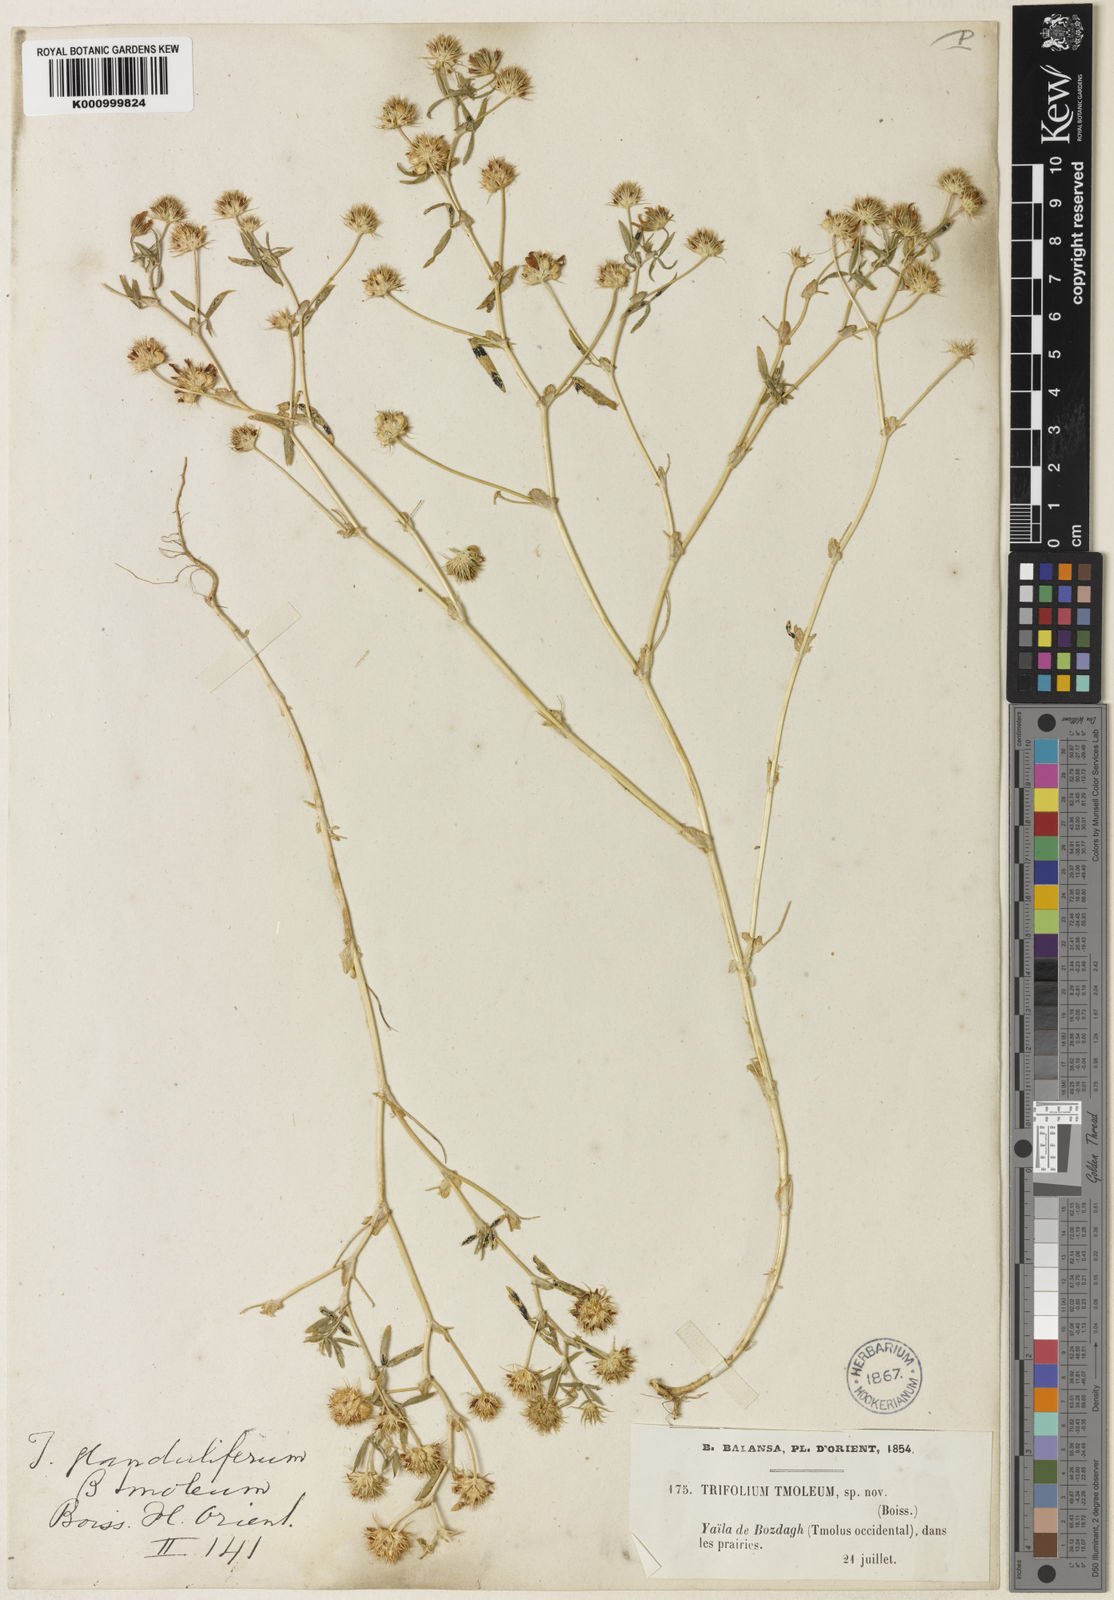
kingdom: Plantae
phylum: Tracheophyta
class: Magnoliopsida
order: Fabales
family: Fabaceae
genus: Trifolium
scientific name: Trifolium glanduliferum
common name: Glandular clover
